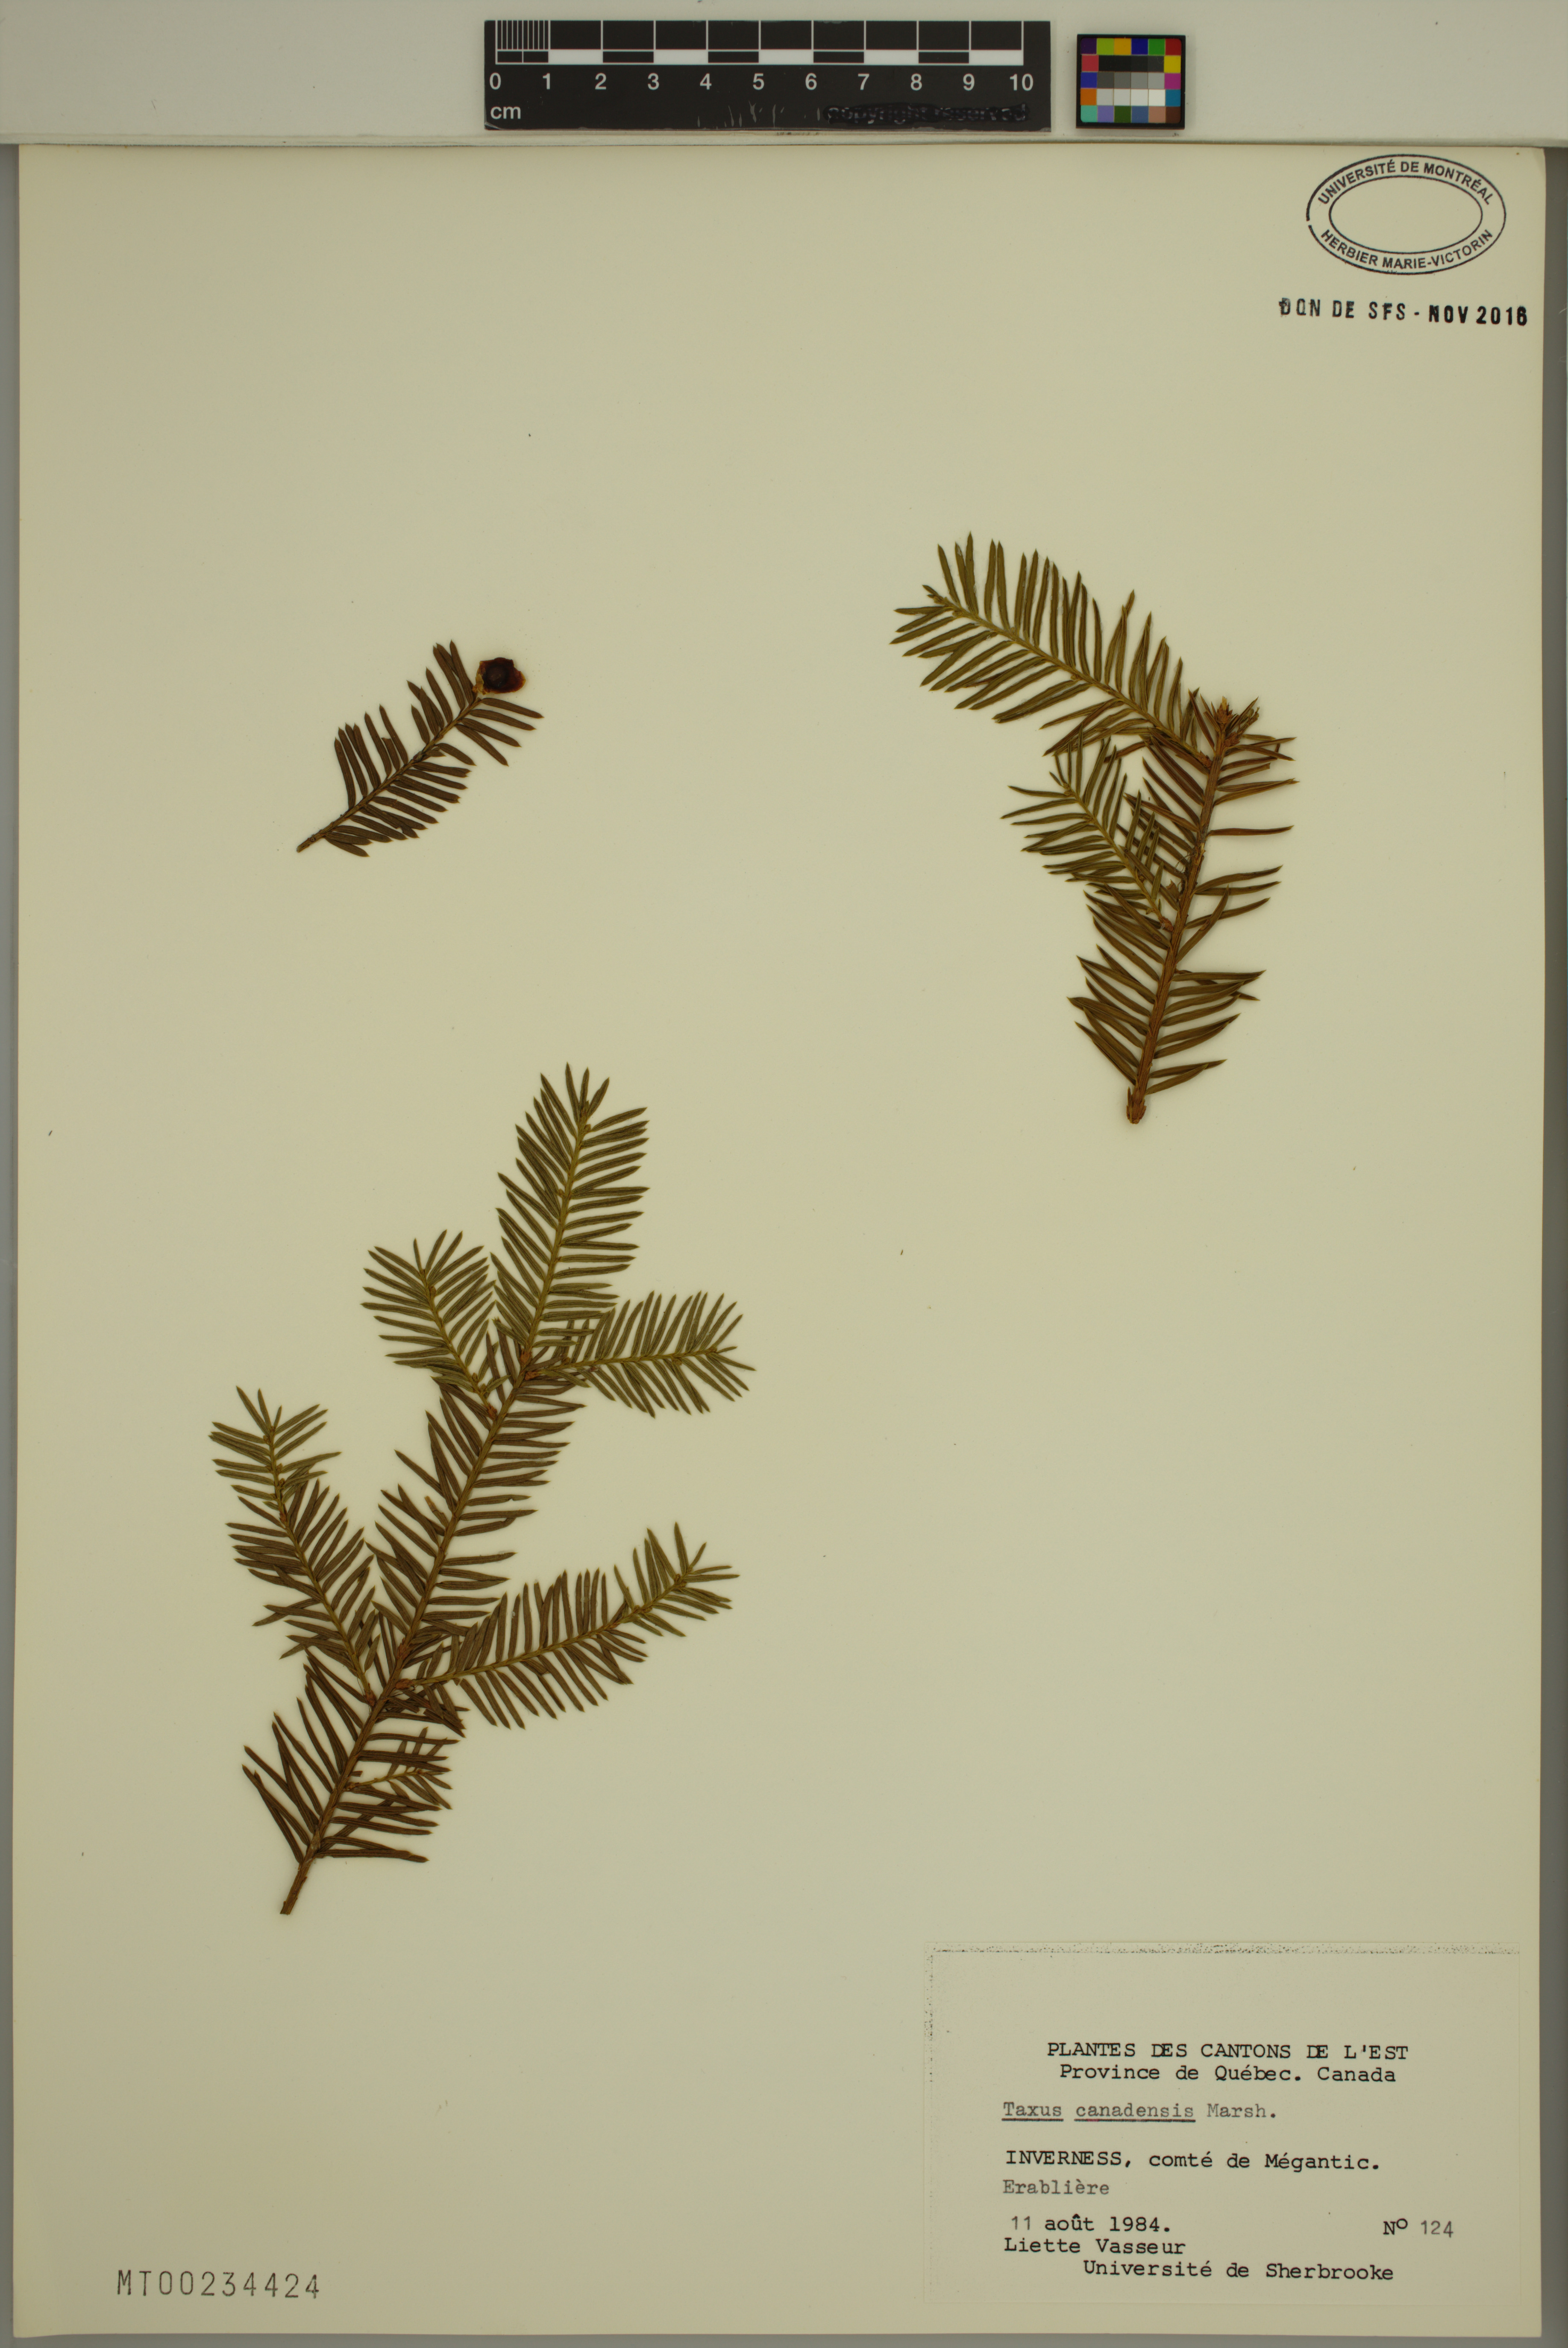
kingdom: Plantae
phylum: Tracheophyta
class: Pinopsida
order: Pinales
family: Taxaceae
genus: Taxus
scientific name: Taxus canadensis
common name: American yew
